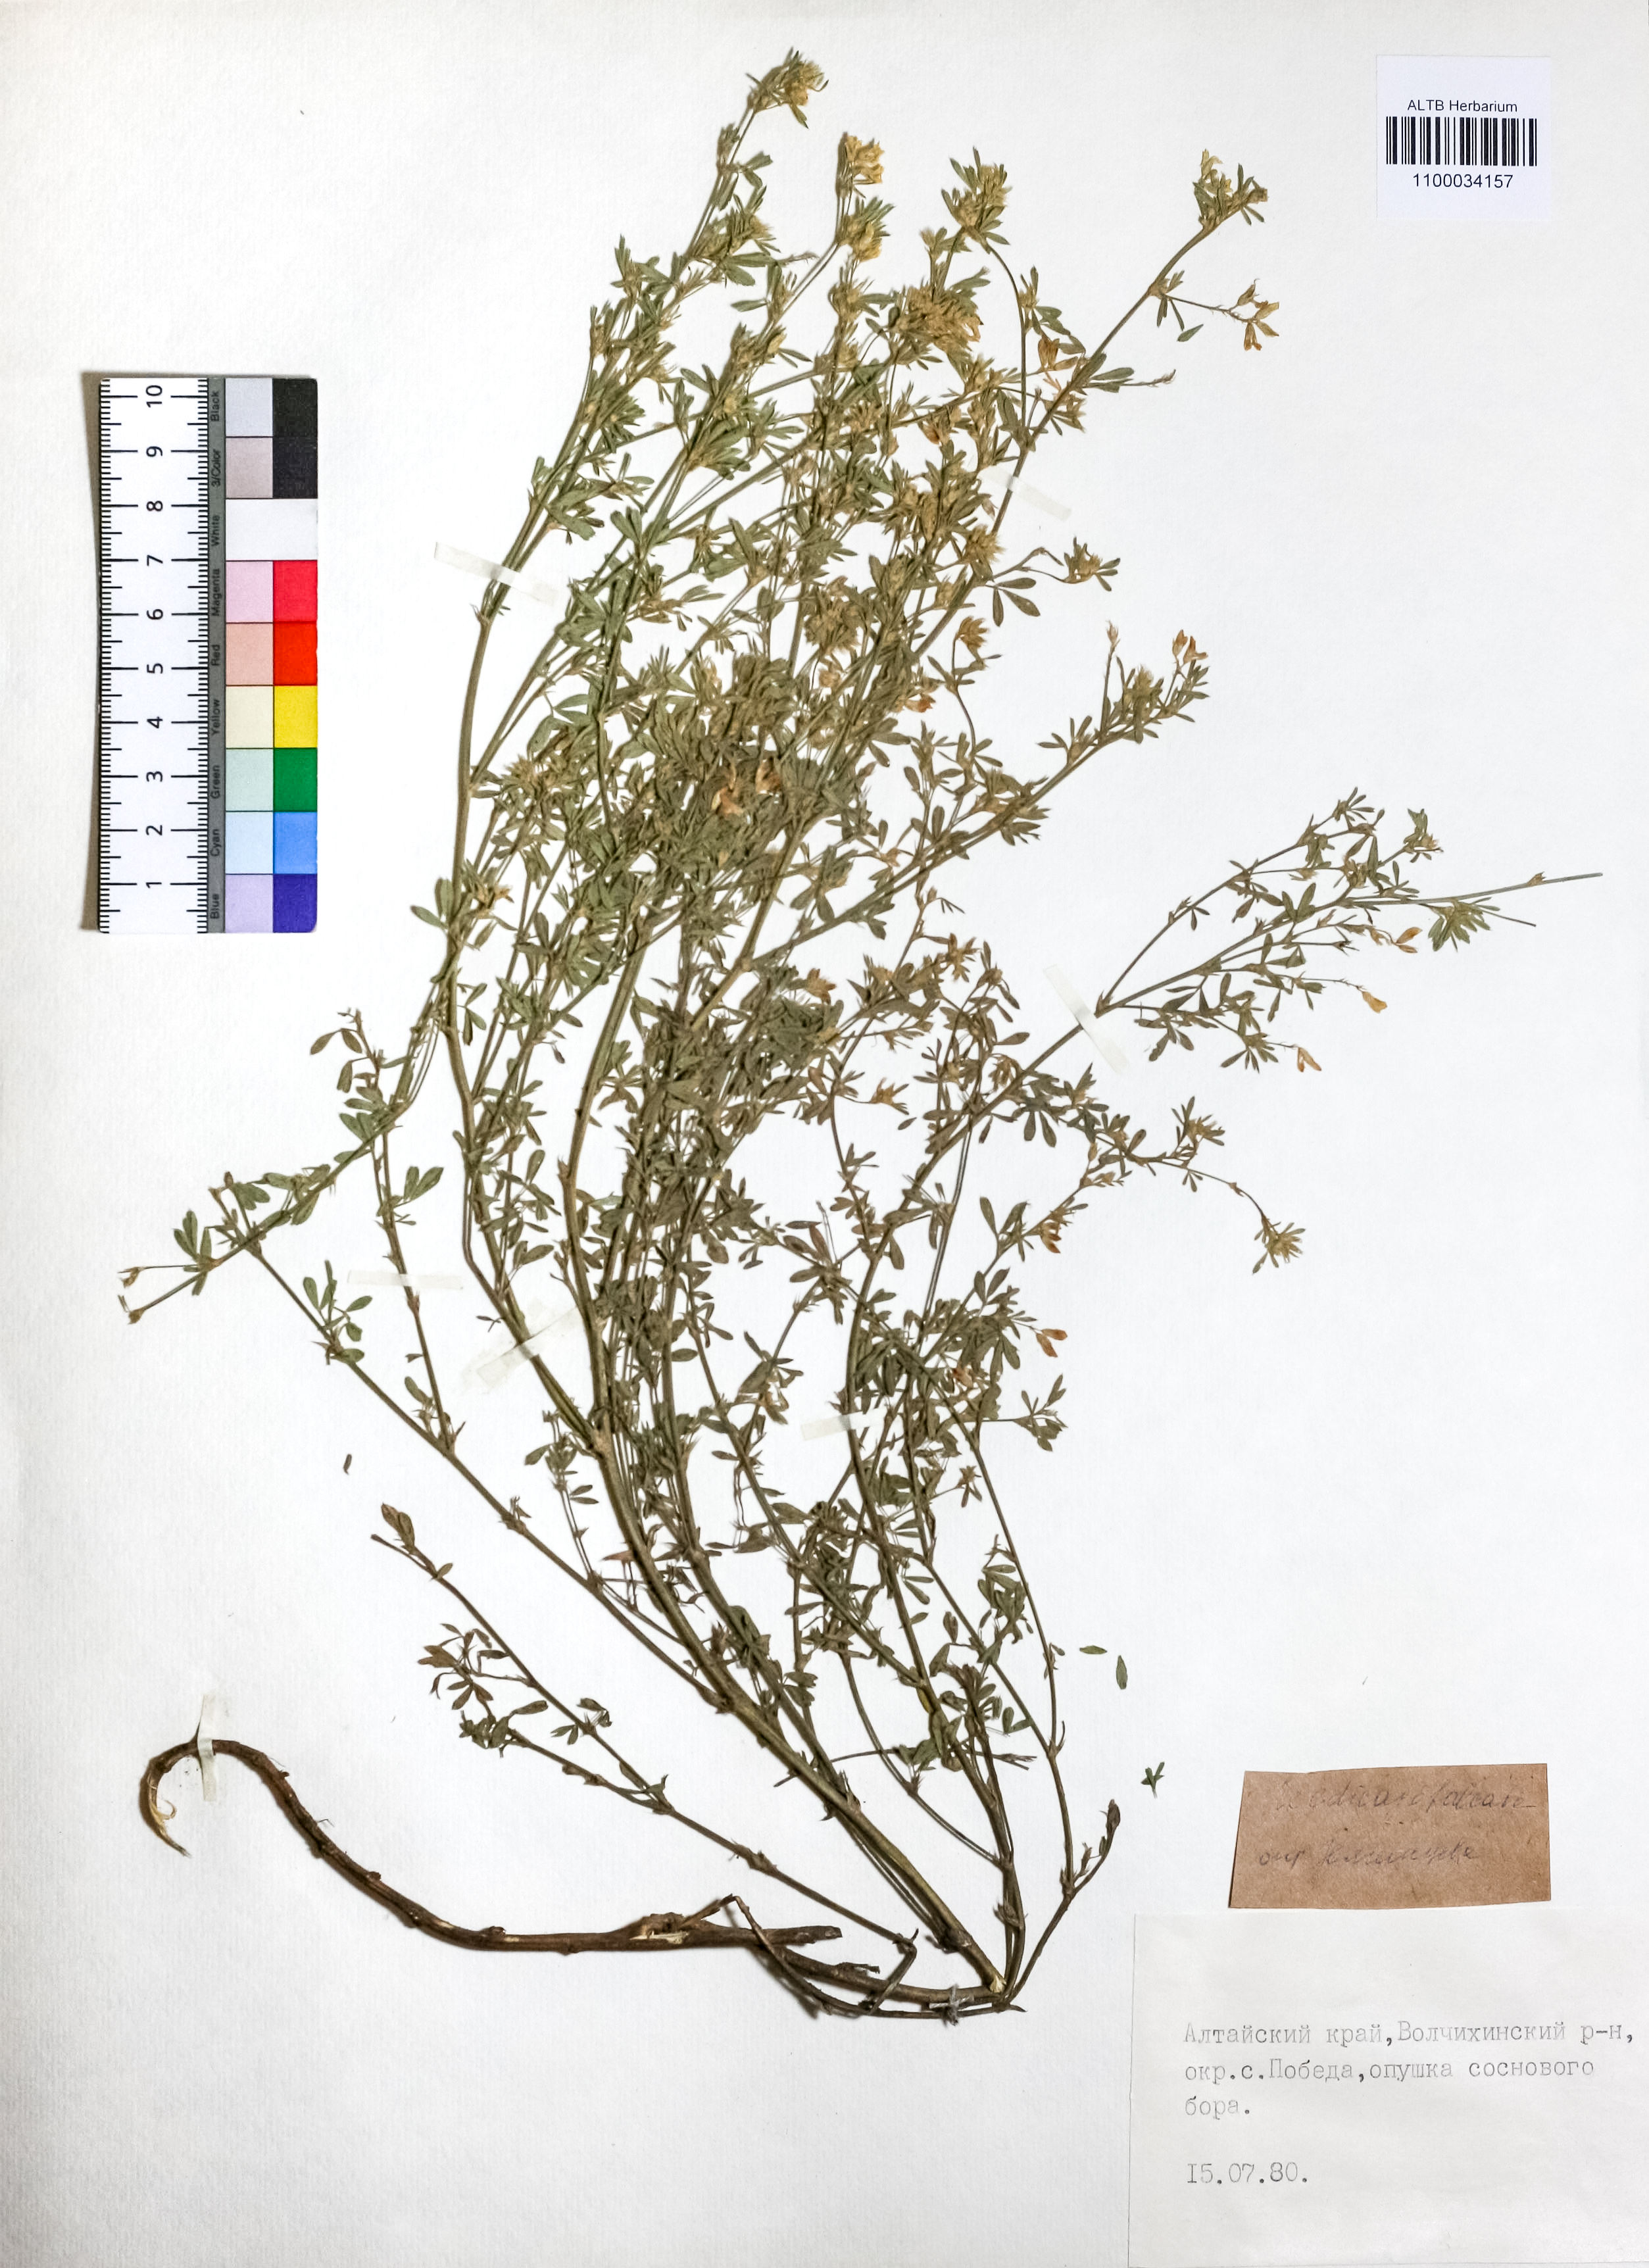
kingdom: Plantae
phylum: Tracheophyta
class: Magnoliopsida
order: Fabales
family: Fabaceae
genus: Medicago
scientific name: Medicago falcata
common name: Sickle medick
